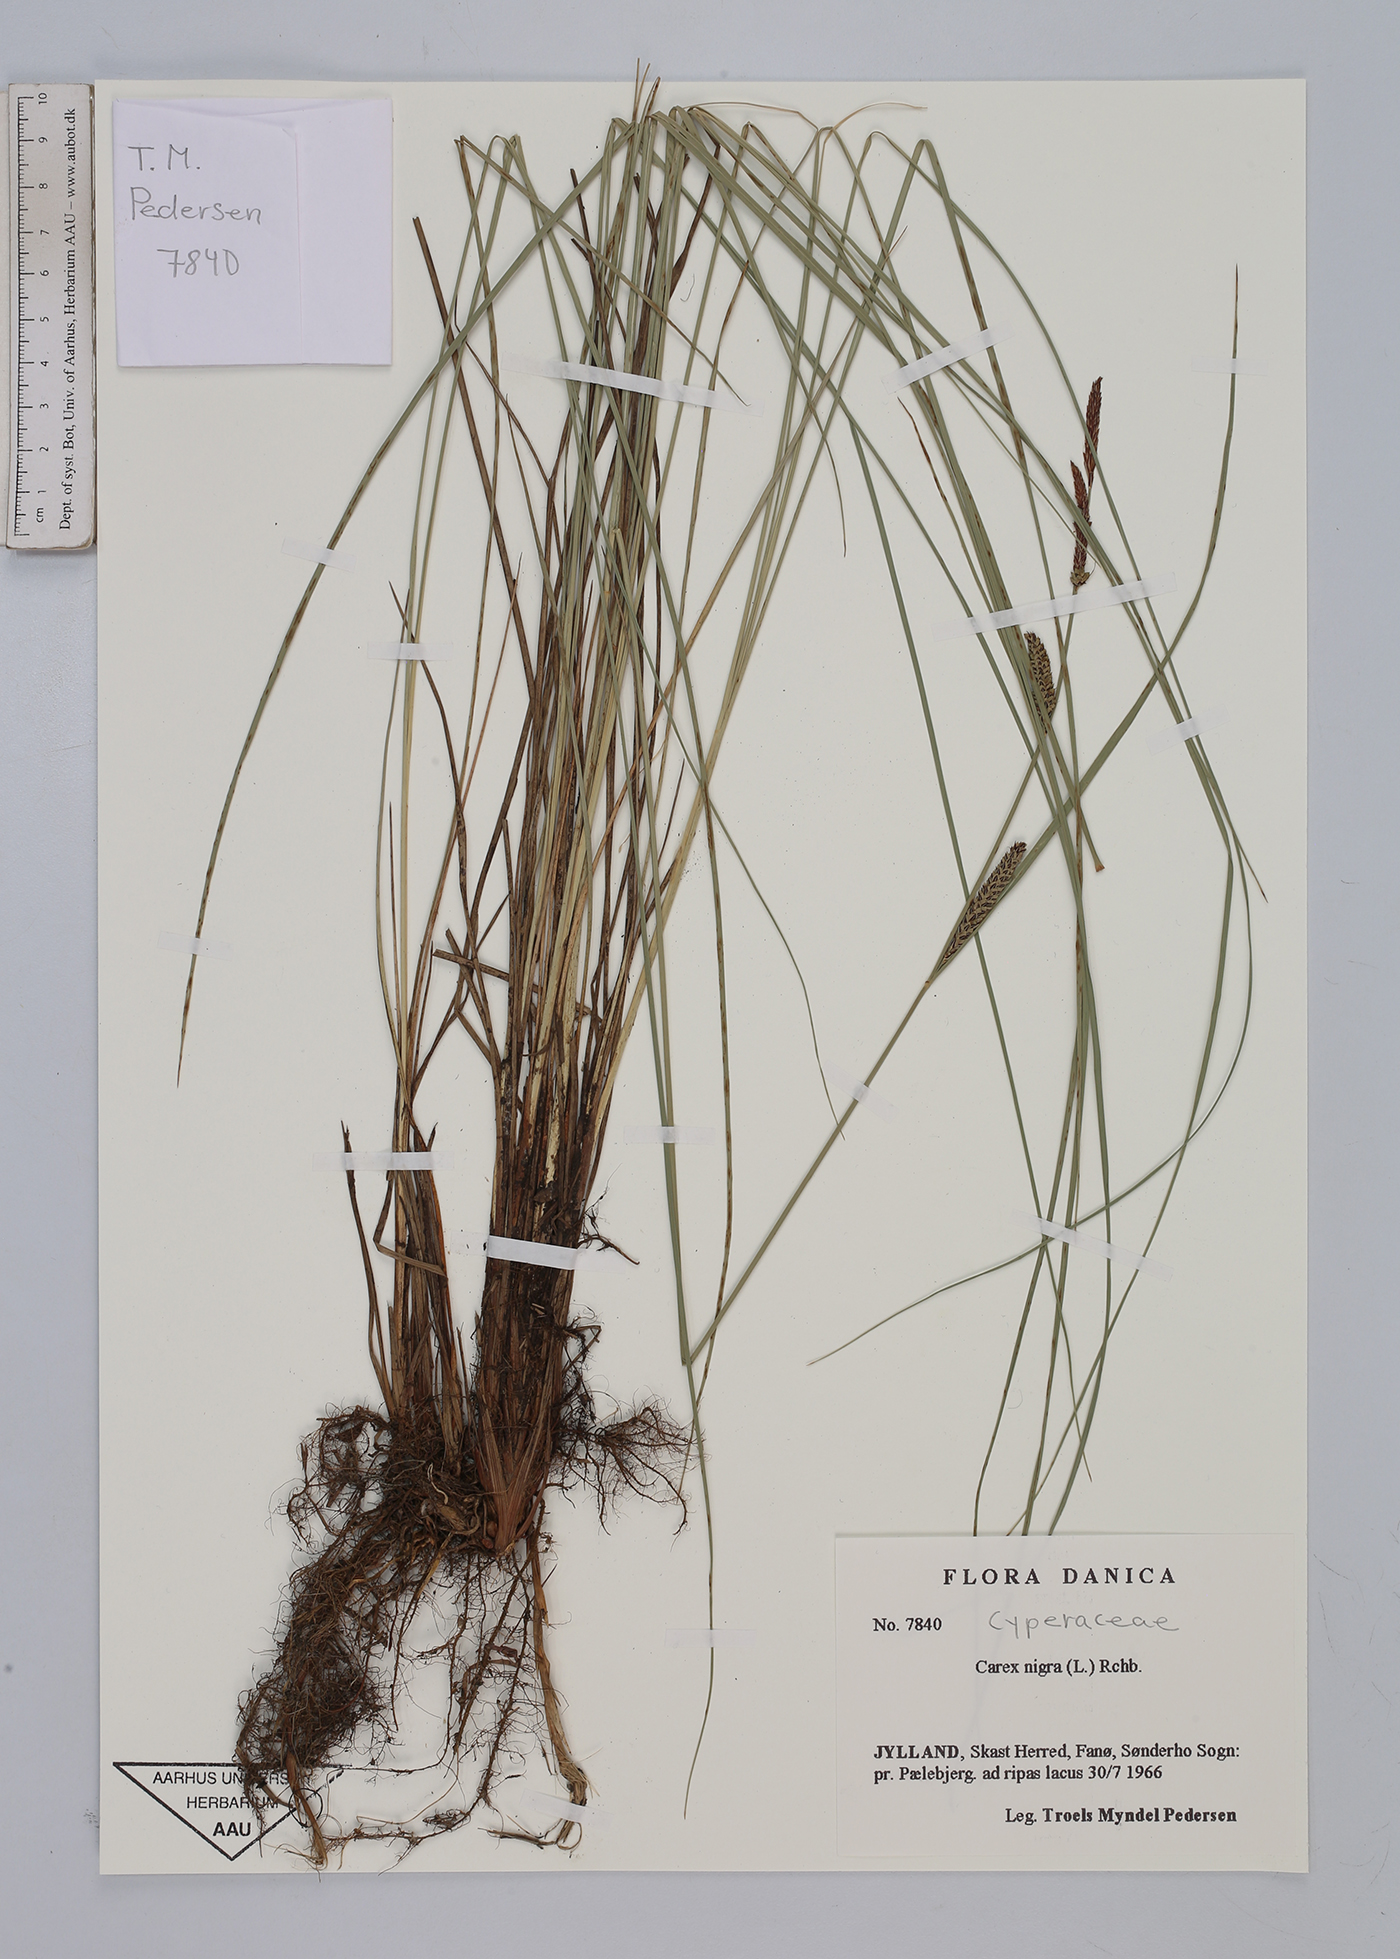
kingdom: Plantae
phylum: Tracheophyta
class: Liliopsida
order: Poales
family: Cyperaceae
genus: Carex
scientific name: Carex nigra
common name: Common sedge
